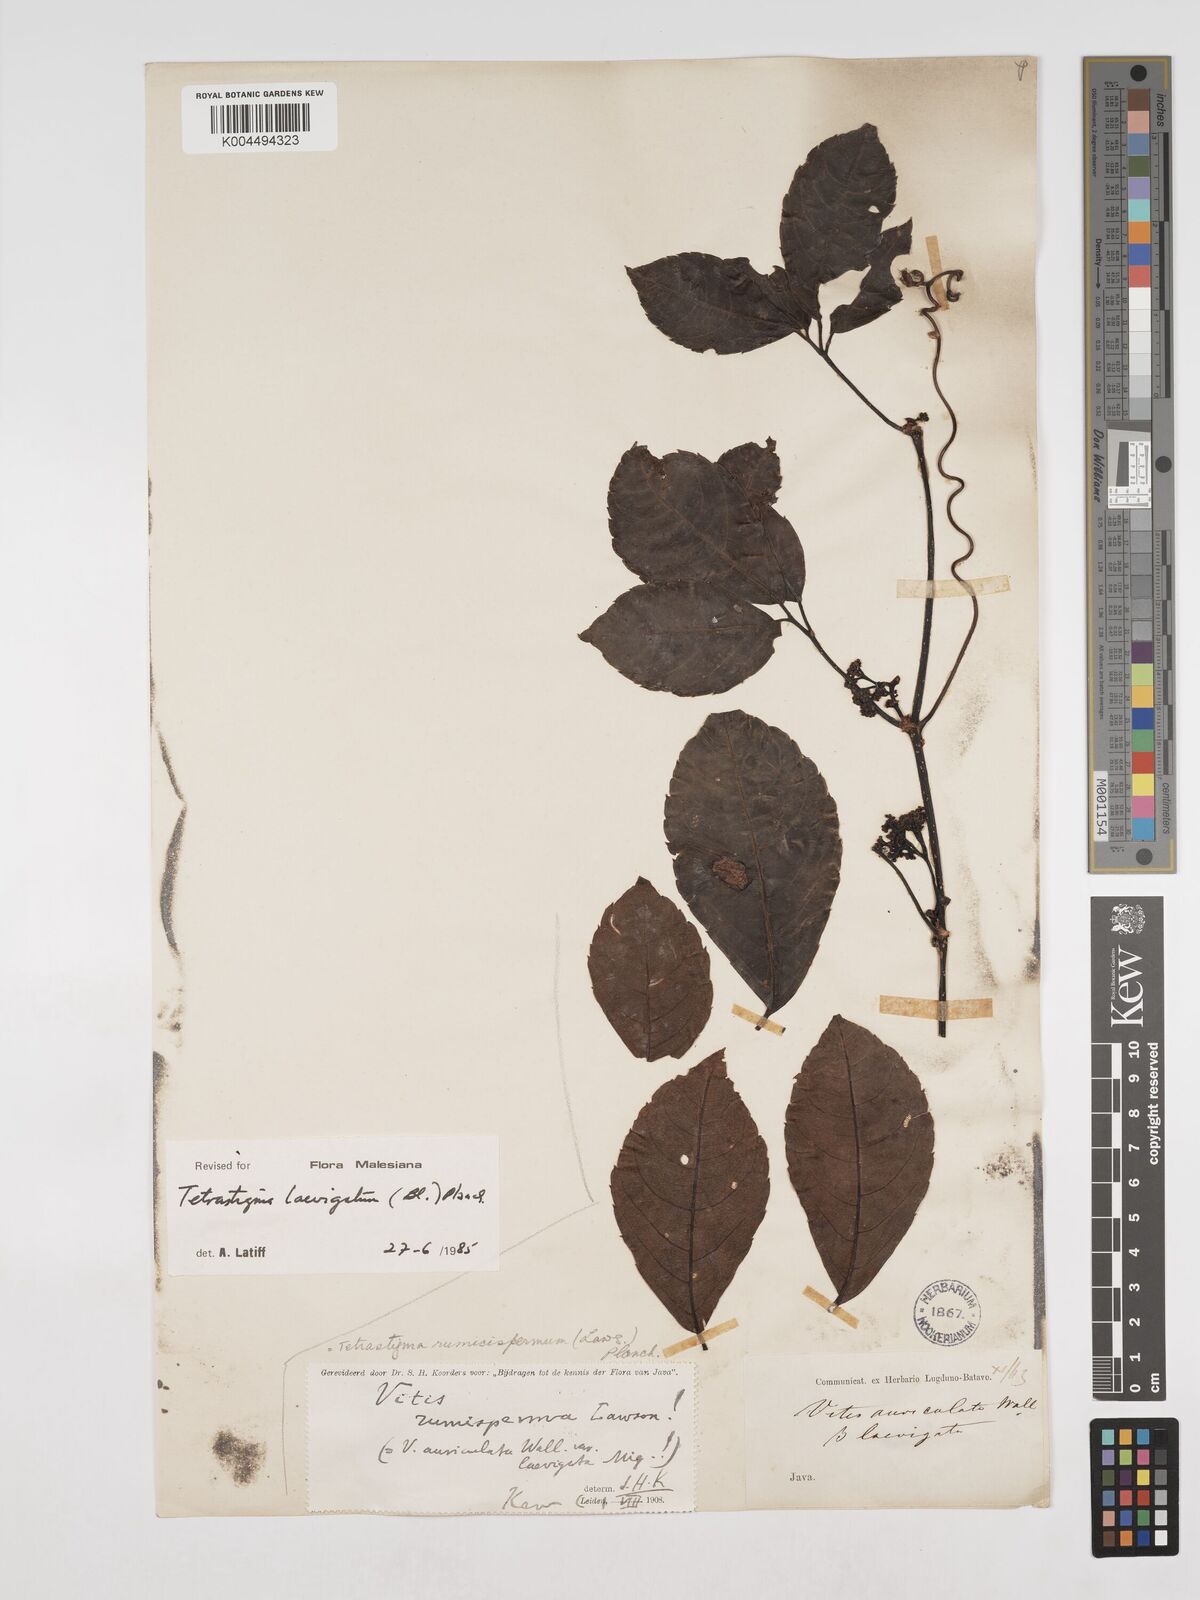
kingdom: Plantae
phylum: Tracheophyta
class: Magnoliopsida
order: Vitales
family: Vitaceae
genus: Tetrastigma
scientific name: Tetrastigma laevigatum
